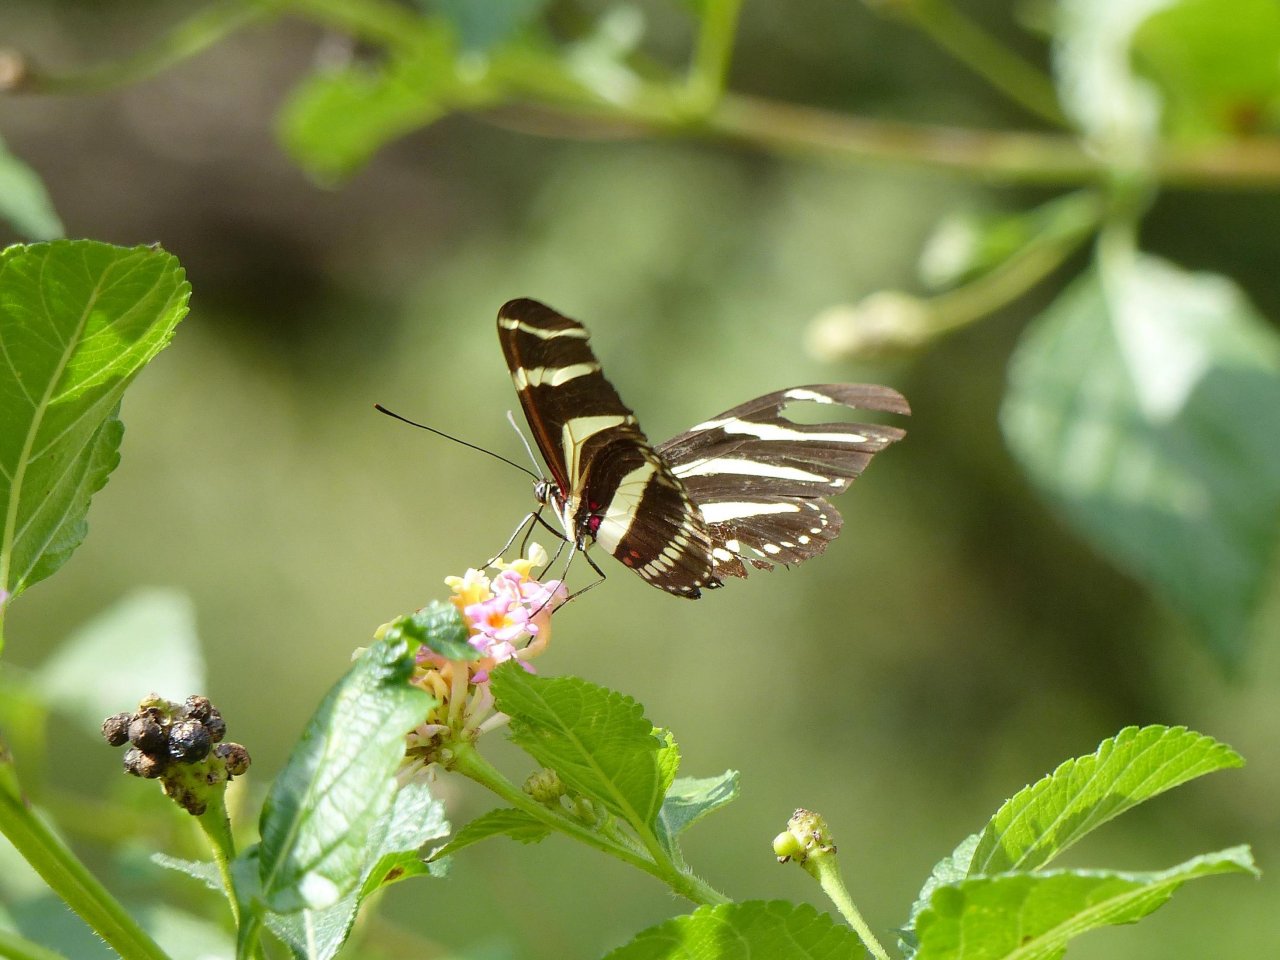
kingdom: Animalia
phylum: Arthropoda
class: Insecta
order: Lepidoptera
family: Nymphalidae
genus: Heliconius
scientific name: Heliconius charithonia
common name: Zebra Longwing
